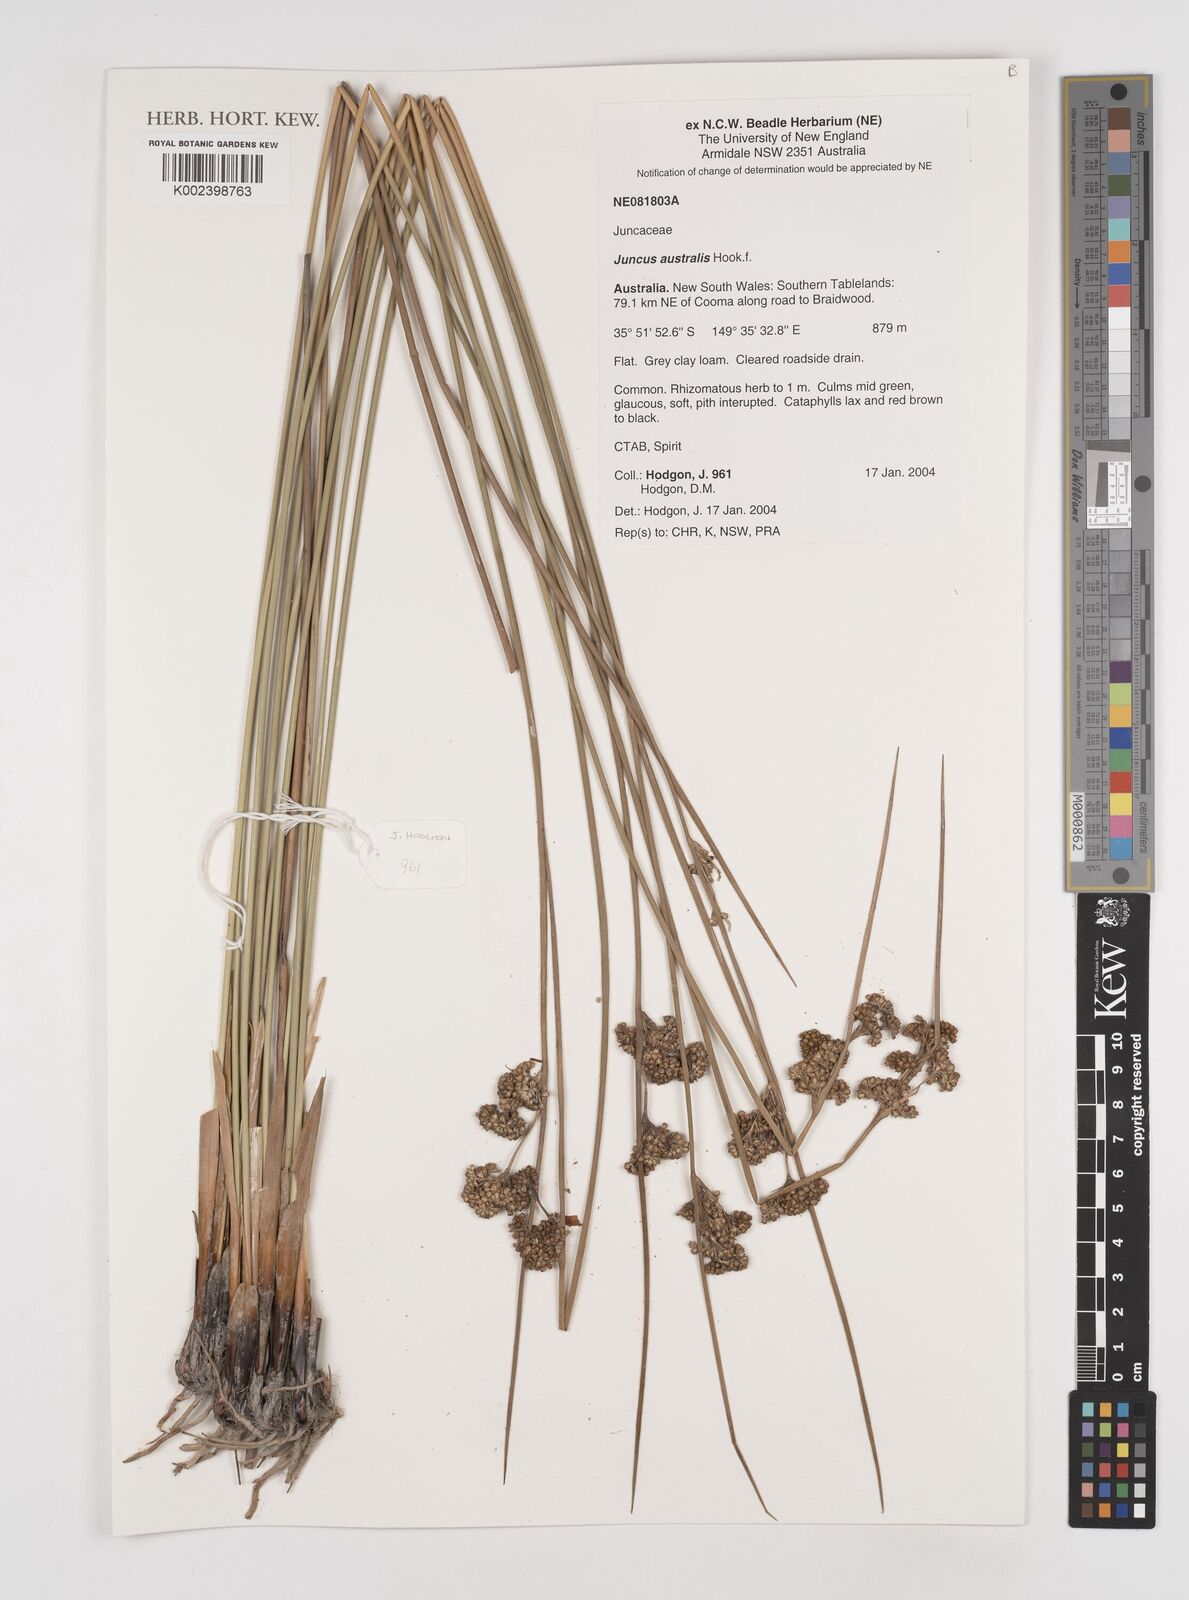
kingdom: Plantae
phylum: Tracheophyta
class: Liliopsida
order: Poales
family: Juncaceae
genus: Juncus
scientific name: Juncus australis
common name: Austral rush
